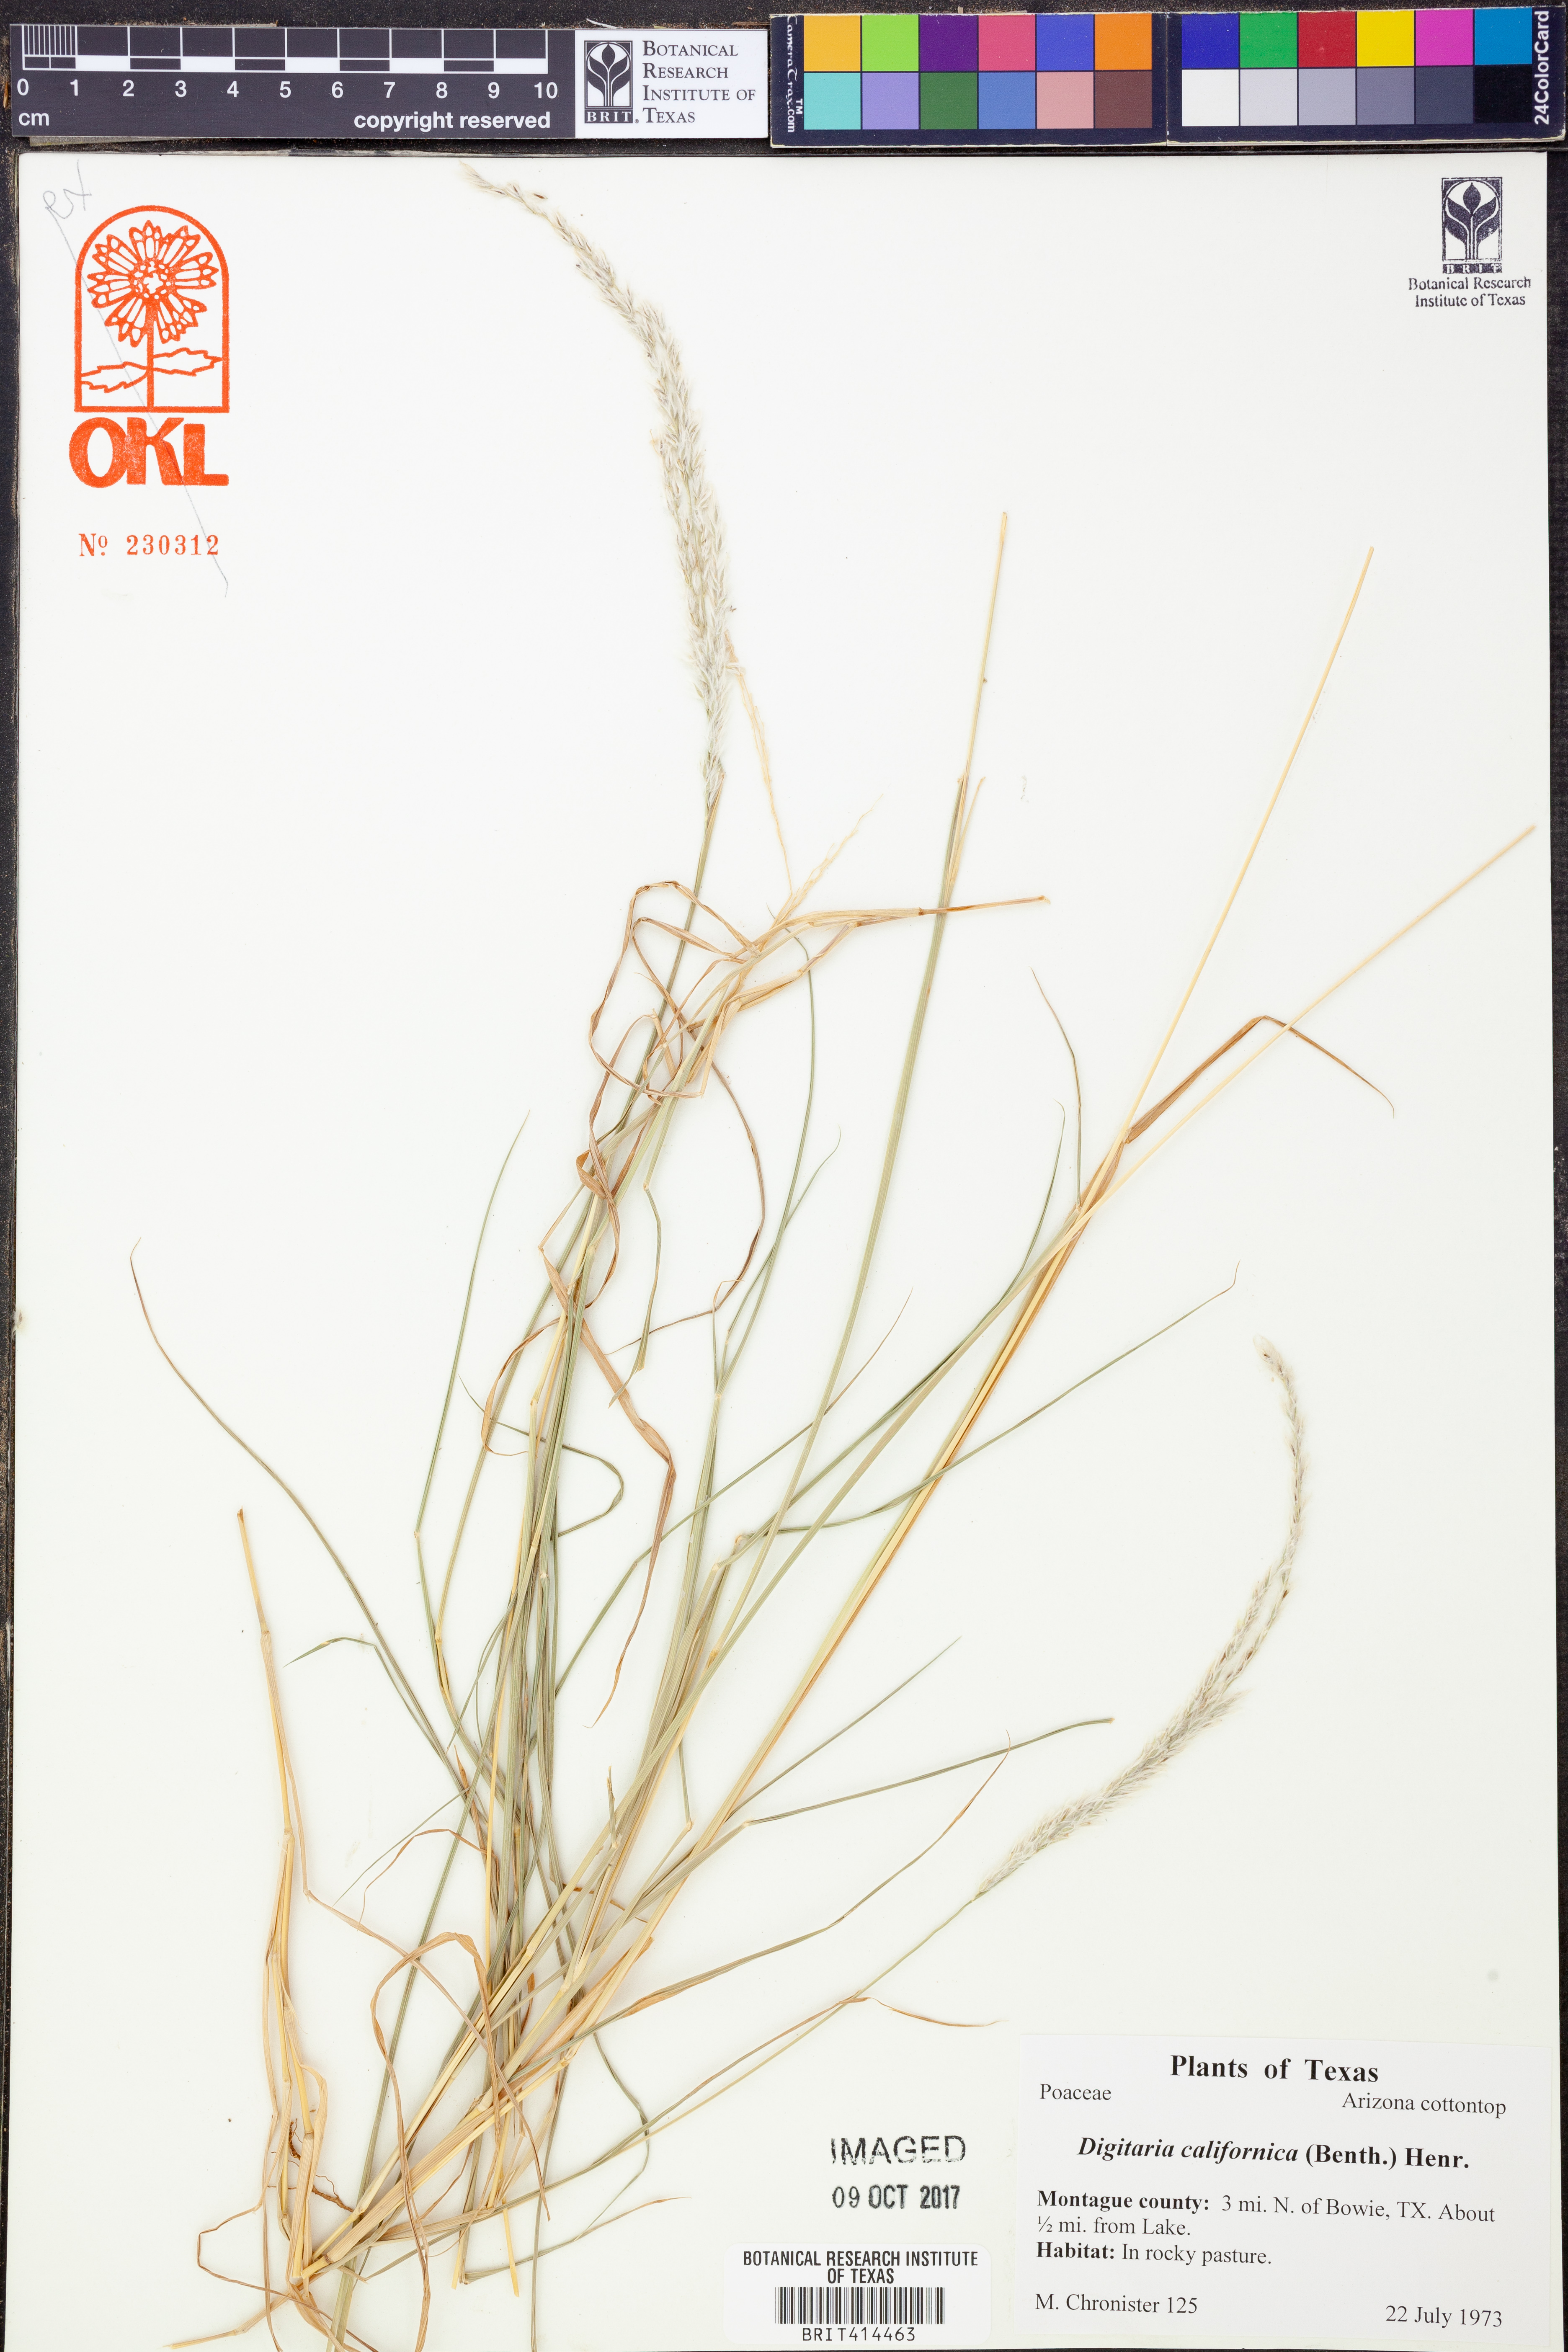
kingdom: Plantae
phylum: Tracheophyta
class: Liliopsida
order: Poales
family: Poaceae
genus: Digitaria
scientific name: Digitaria californica
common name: Arizona cottontop
